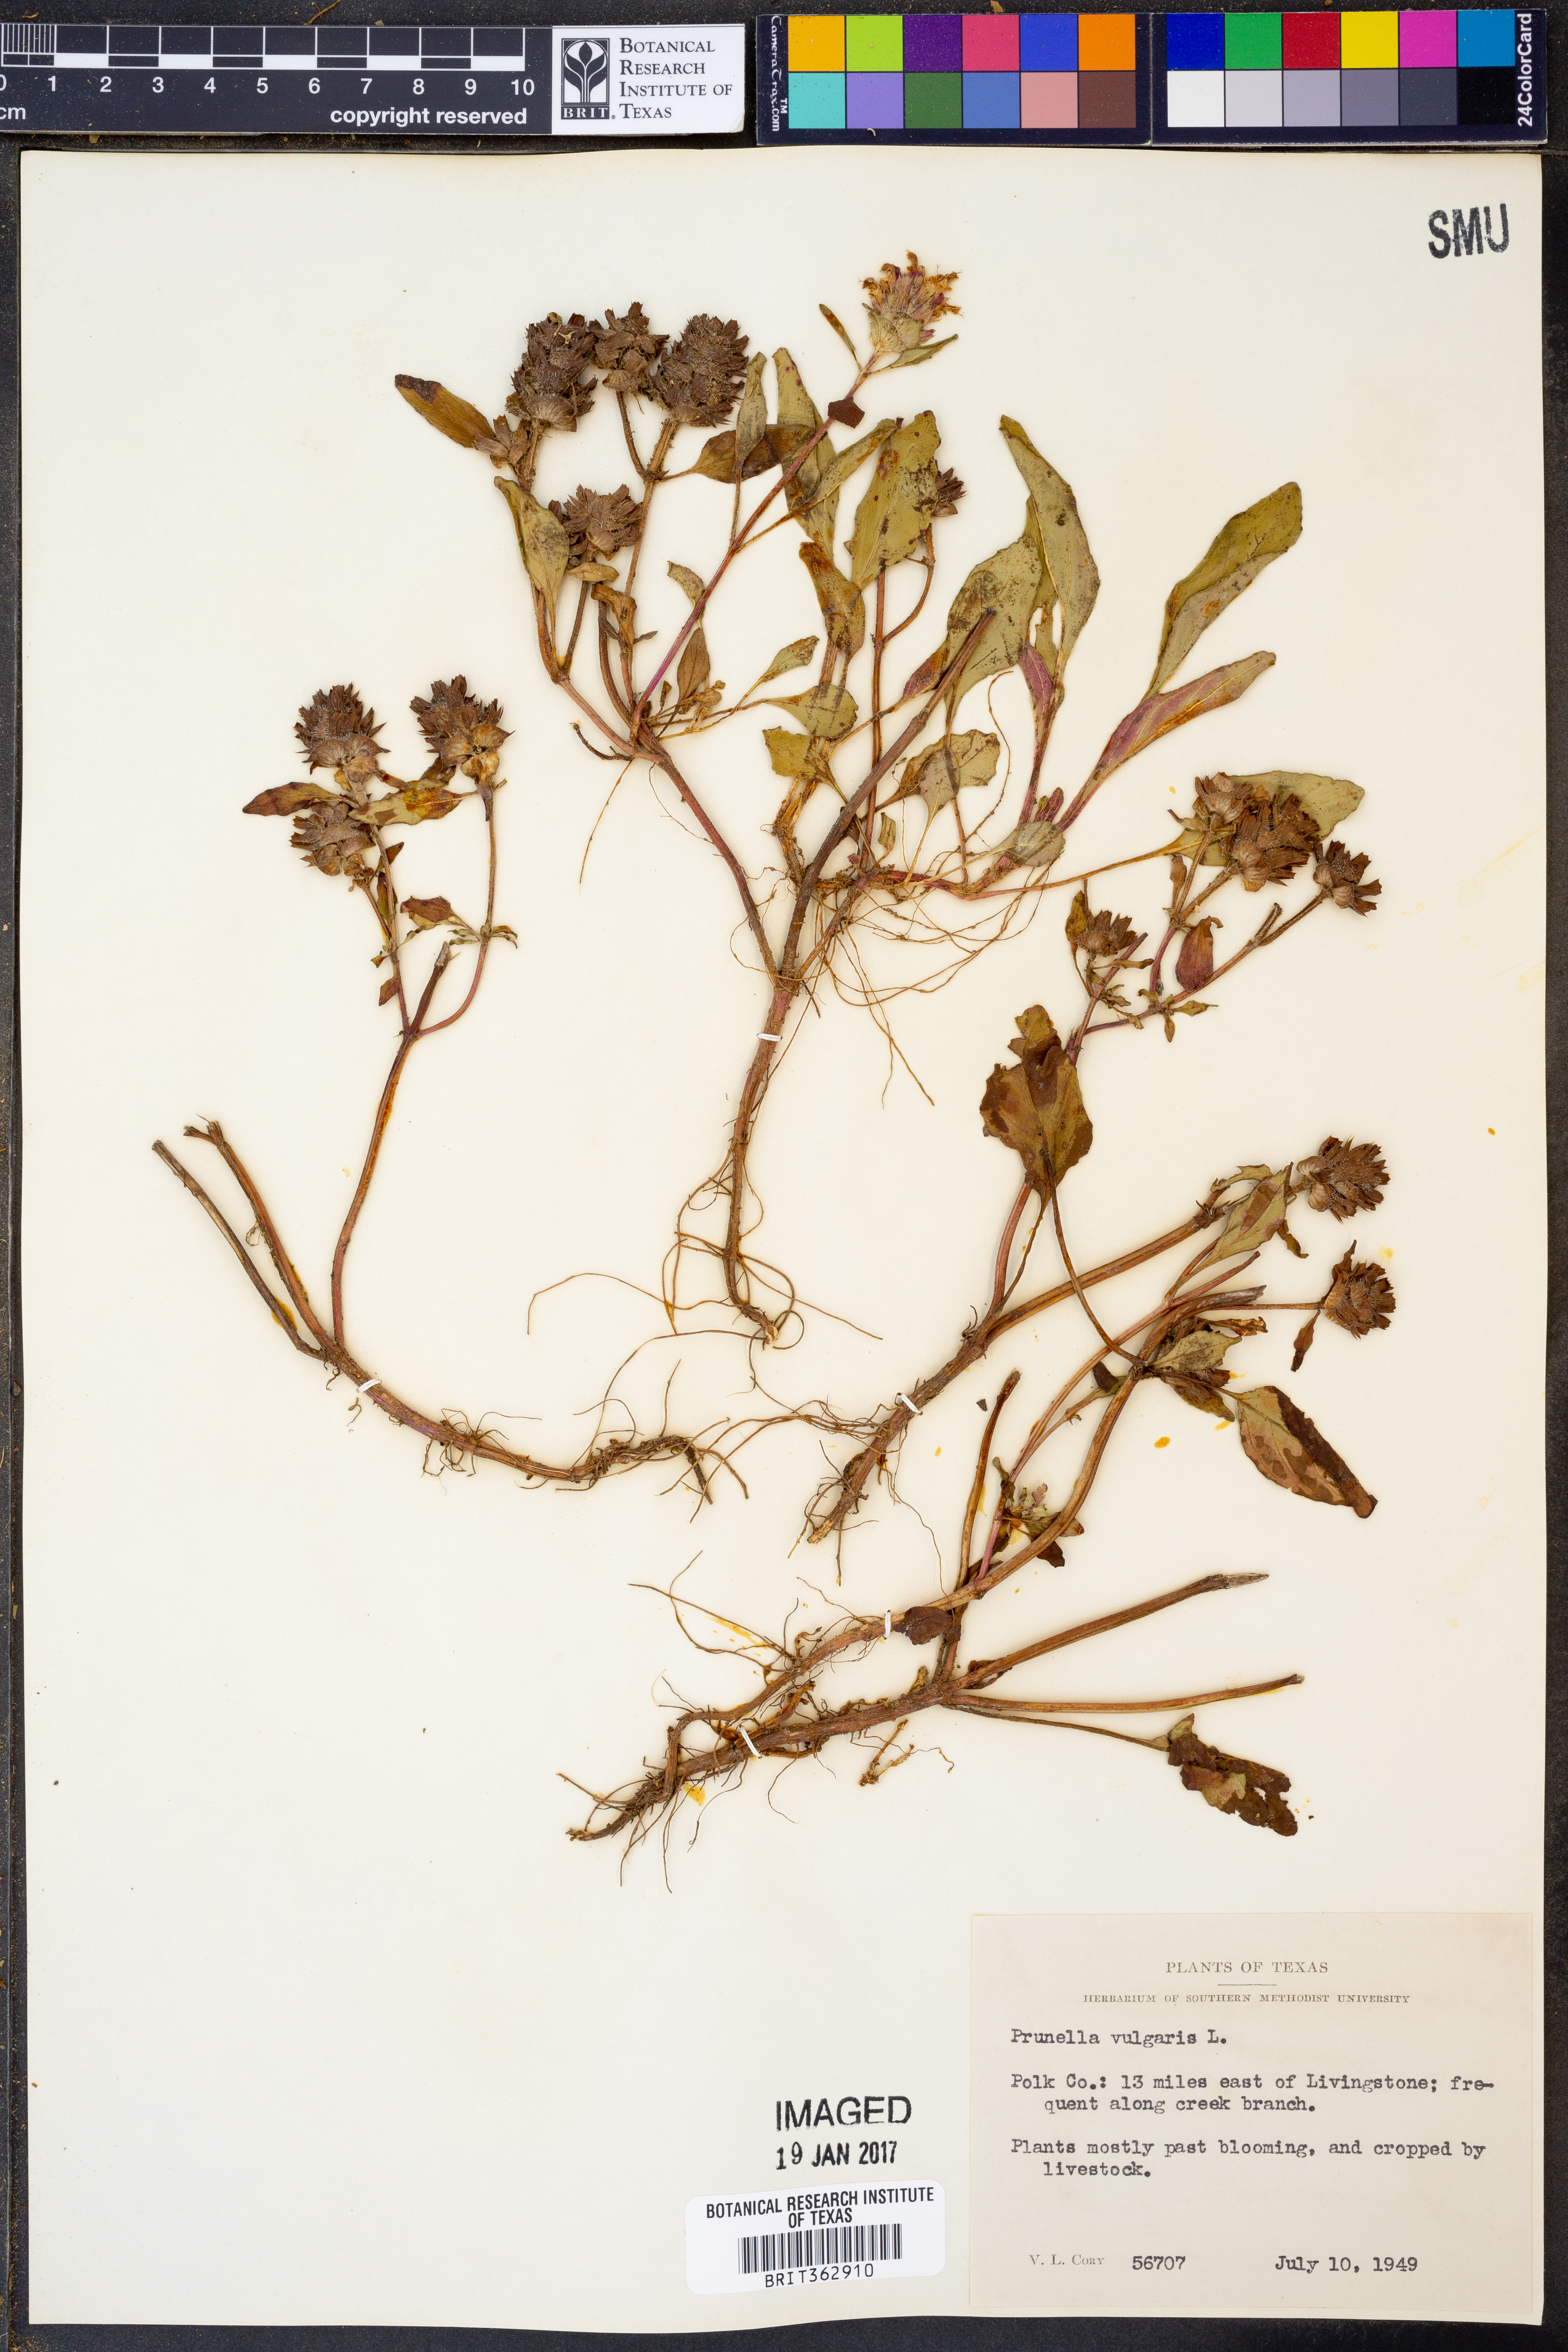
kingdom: Plantae
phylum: Tracheophyta
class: Magnoliopsida
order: Lamiales
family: Lamiaceae
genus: Prunella
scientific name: Prunella vulgaris
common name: Heal-all
